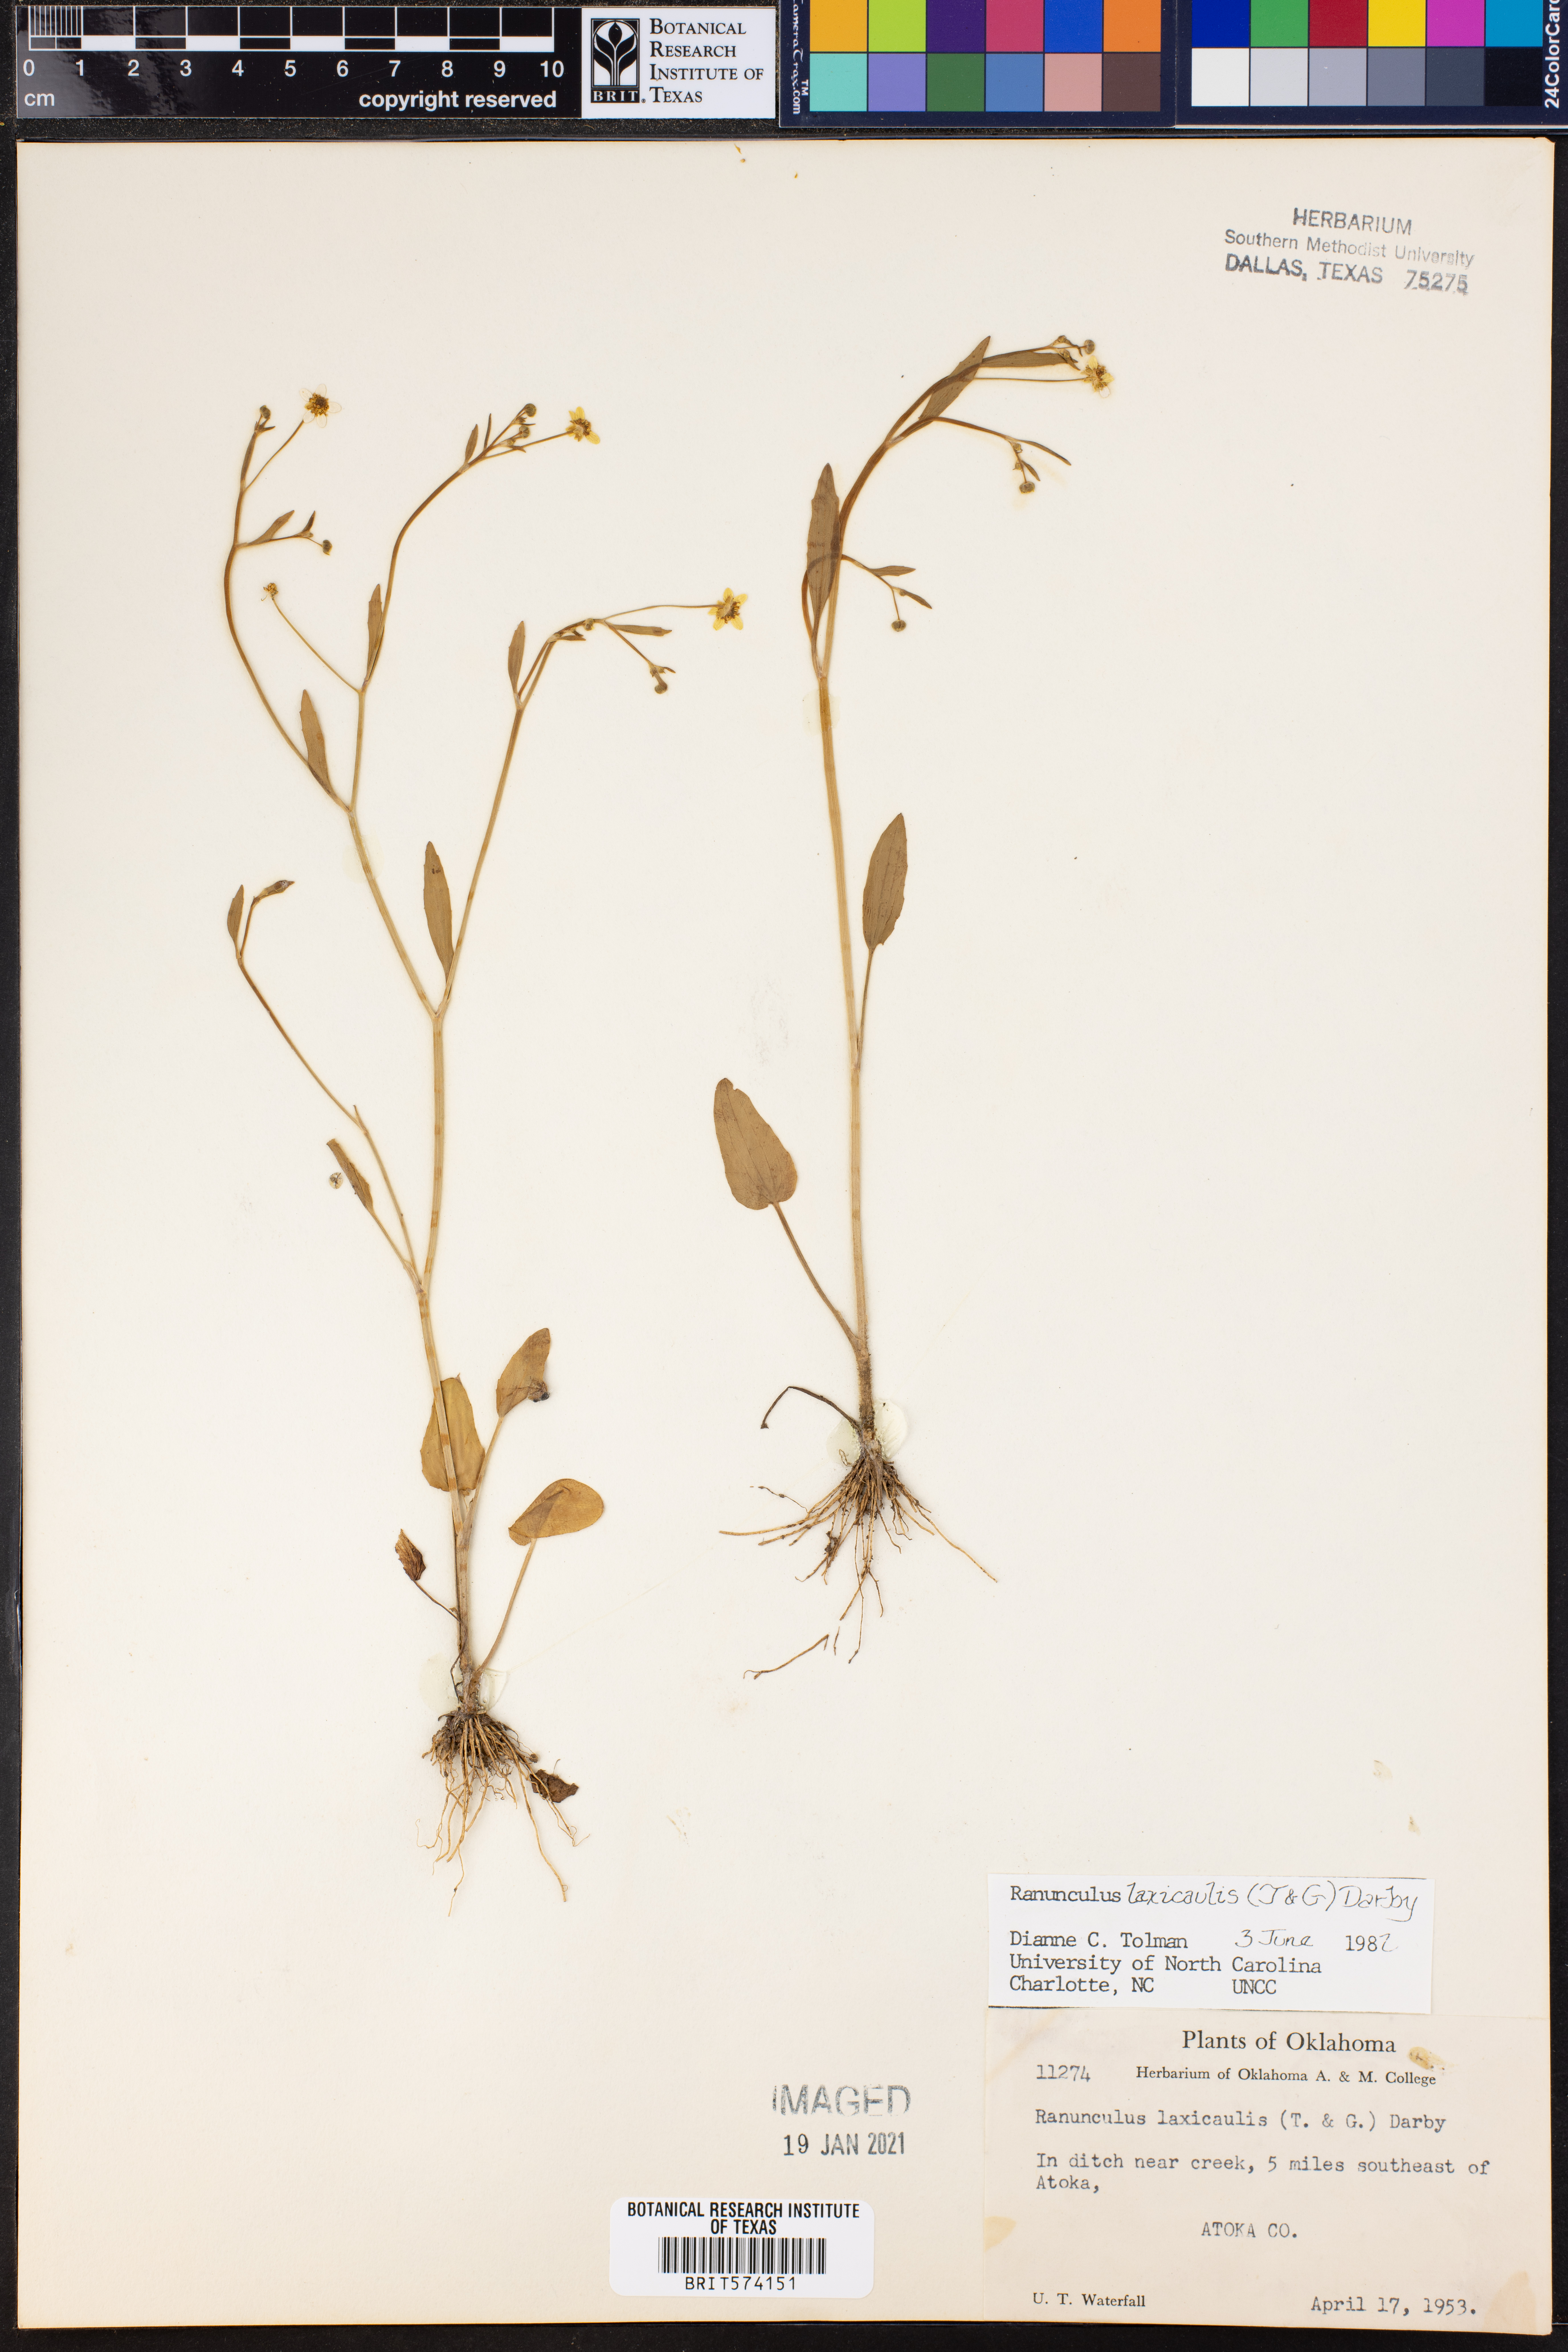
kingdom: Plantae
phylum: Tracheophyta
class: Magnoliopsida
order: Ranunculales
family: Ranunculaceae
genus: Ranunculus
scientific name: Ranunculus laxicaulis
